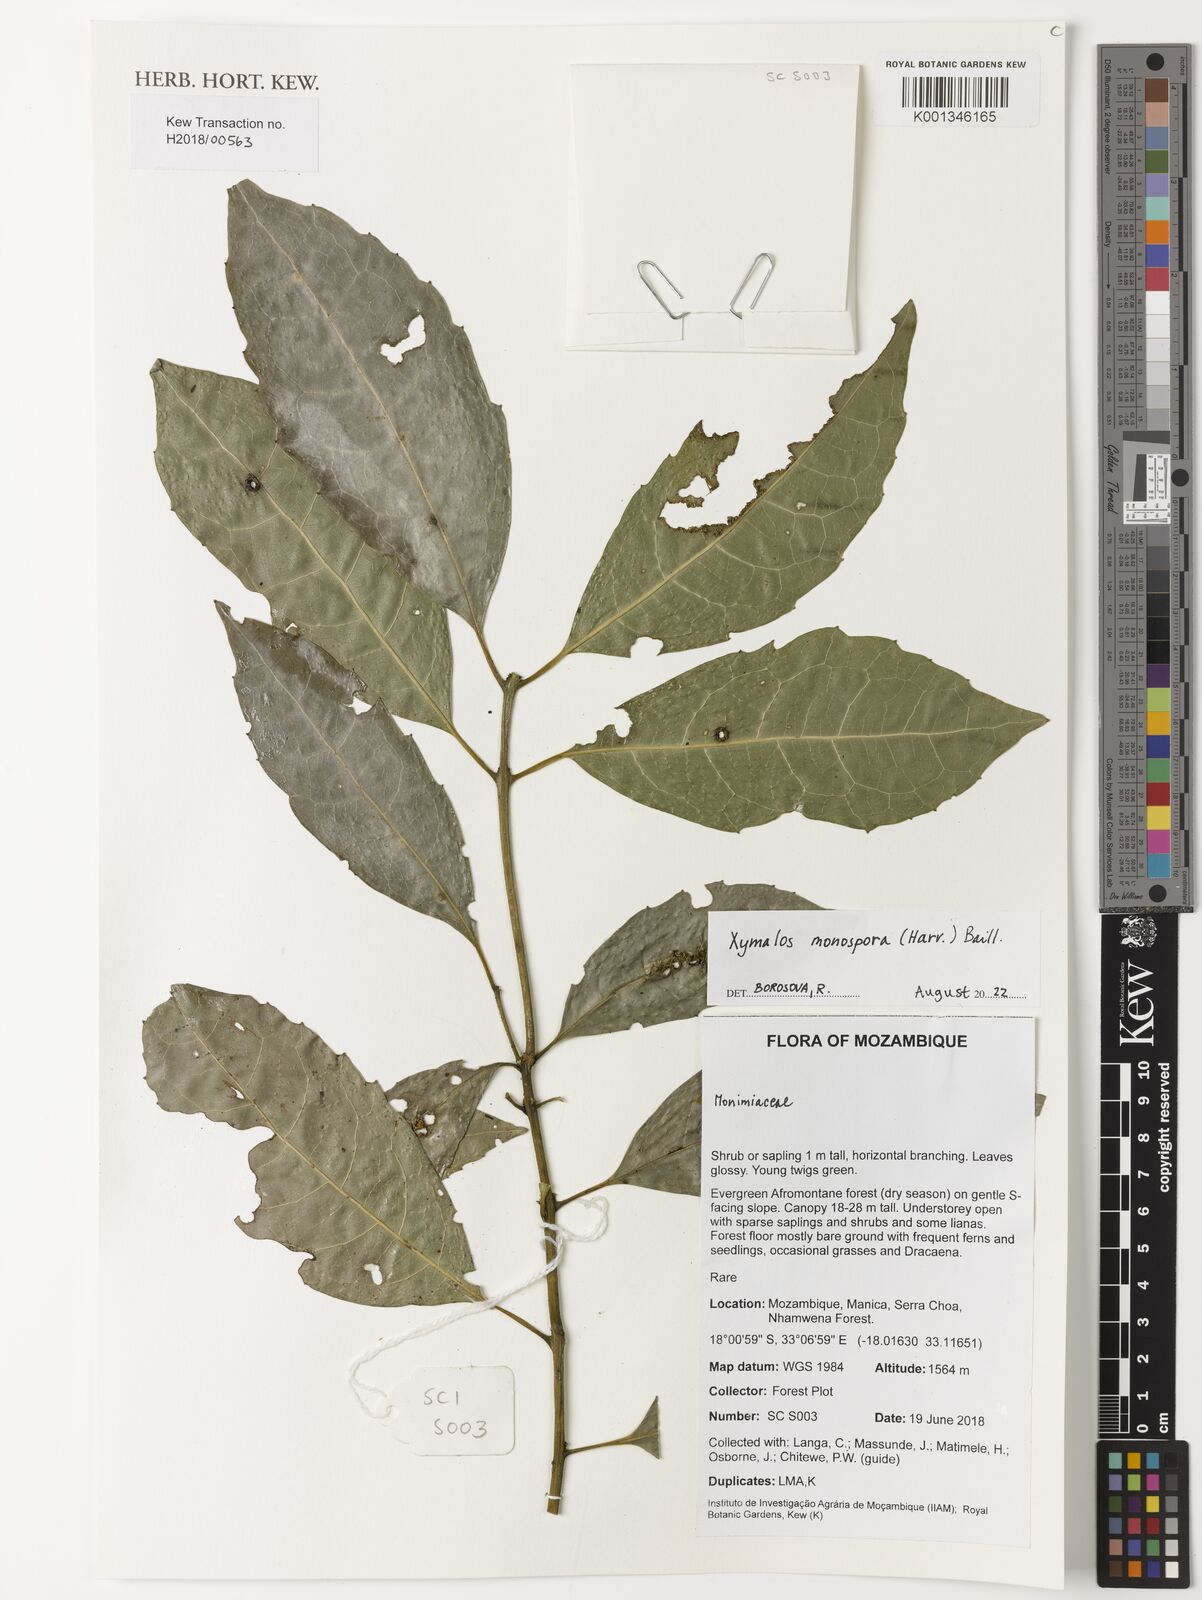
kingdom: Plantae
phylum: Tracheophyta
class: Magnoliopsida
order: Laurales
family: Monimiaceae
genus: Xymalos
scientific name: Xymalos monospora
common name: Lemonwood
